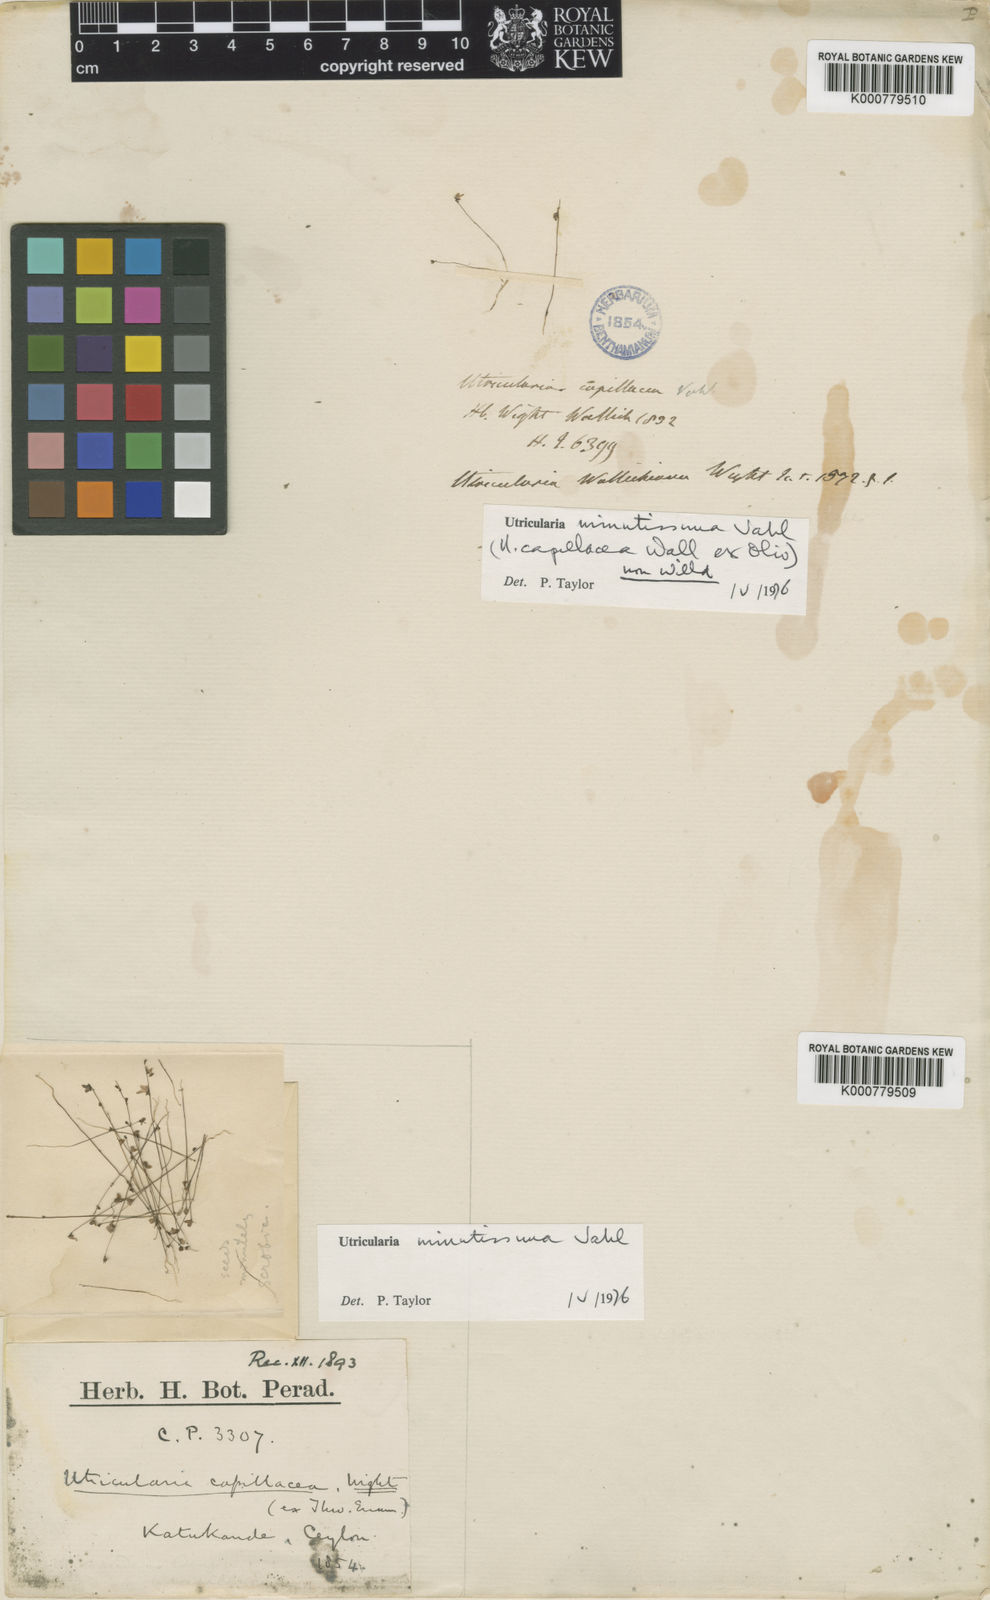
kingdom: Plantae
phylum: Tracheophyta
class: Magnoliopsida
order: Lamiales
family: Lentibulariaceae
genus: Utricularia
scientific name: Utricularia minutissima
